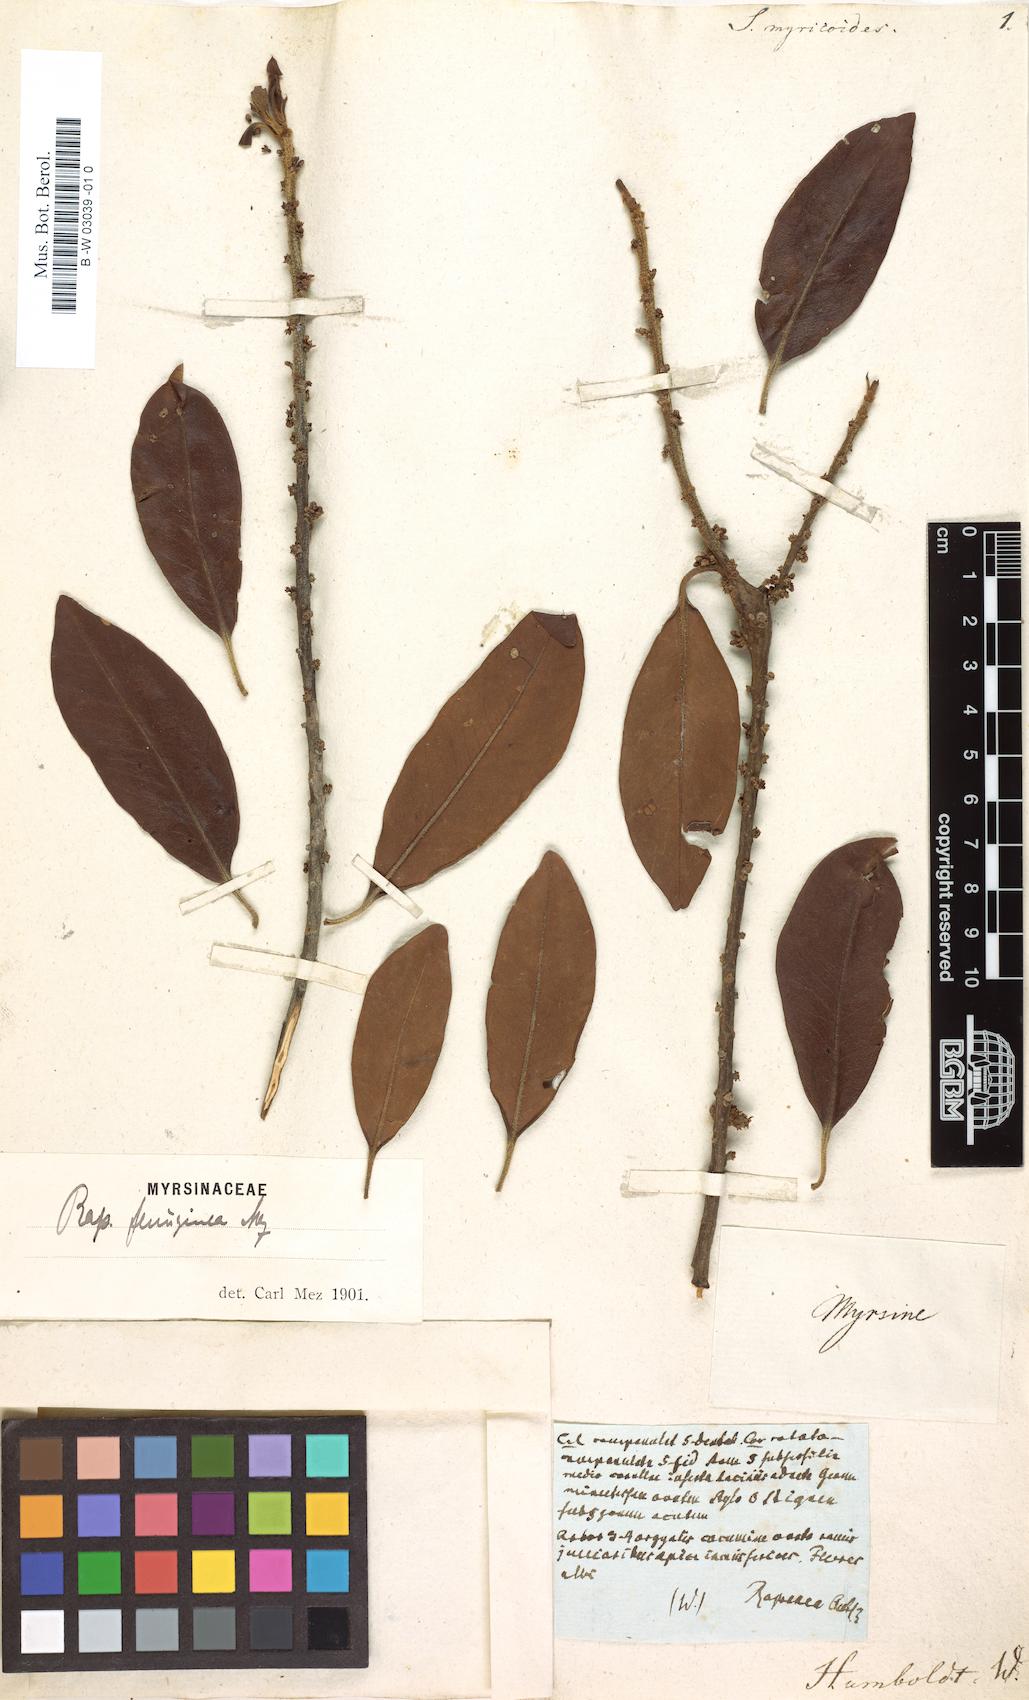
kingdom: Plantae
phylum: Tracheophyta
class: Magnoliopsida
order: Ericales
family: Primulaceae
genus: Myrsine
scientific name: Myrsine coriacea
